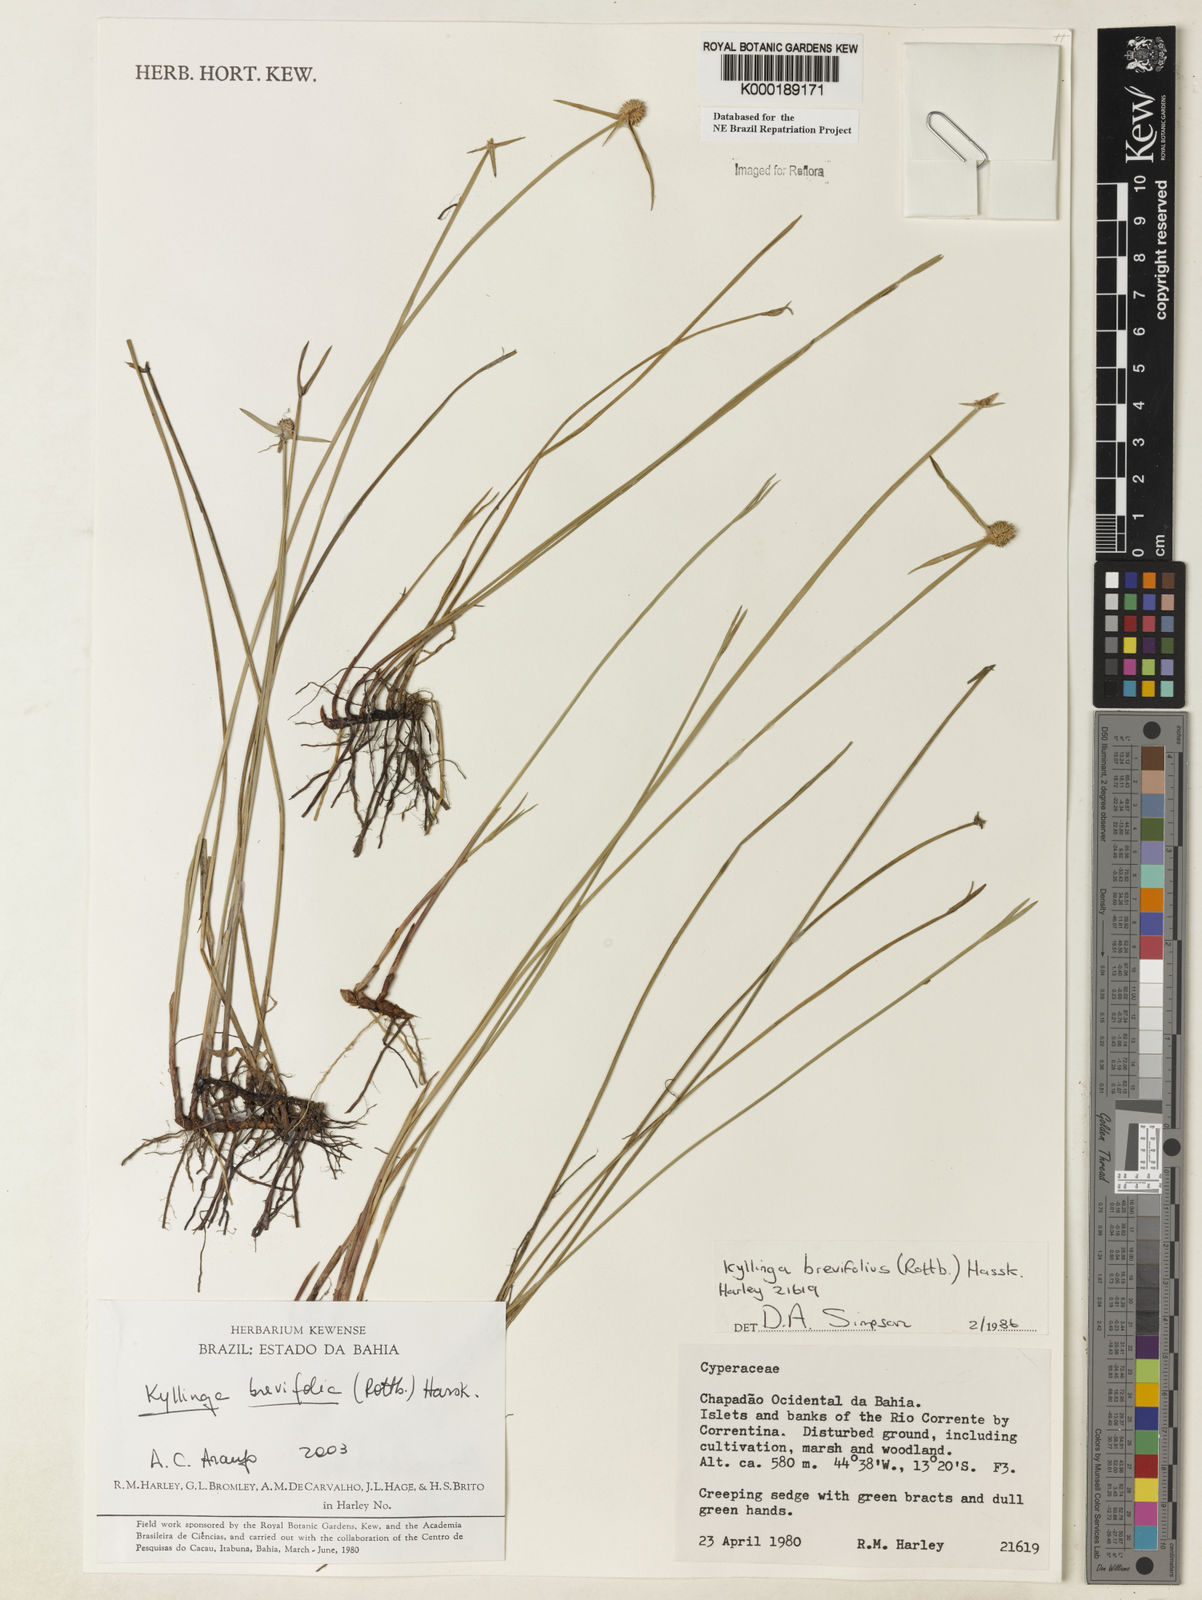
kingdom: Plantae
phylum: Tracheophyta
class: Liliopsida
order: Poales
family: Cyperaceae
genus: Cyperus
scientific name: Cyperus brevifolius
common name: Globe kyllinga
